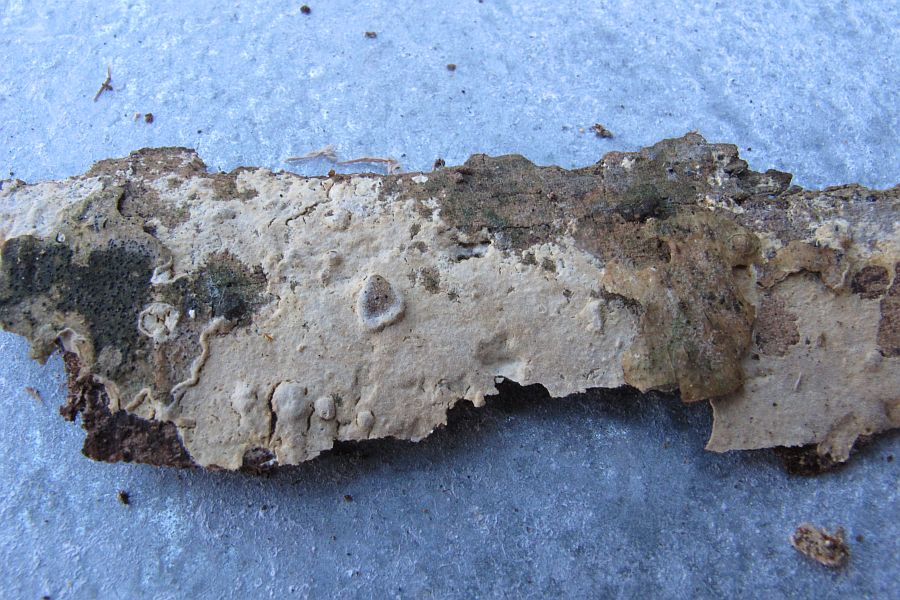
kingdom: Fungi
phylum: Basidiomycota
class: Agaricomycetes
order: Hymenochaetales
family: Rickenellaceae
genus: Peniophorella
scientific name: Peniophorella pubera
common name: dunet kalkskind
